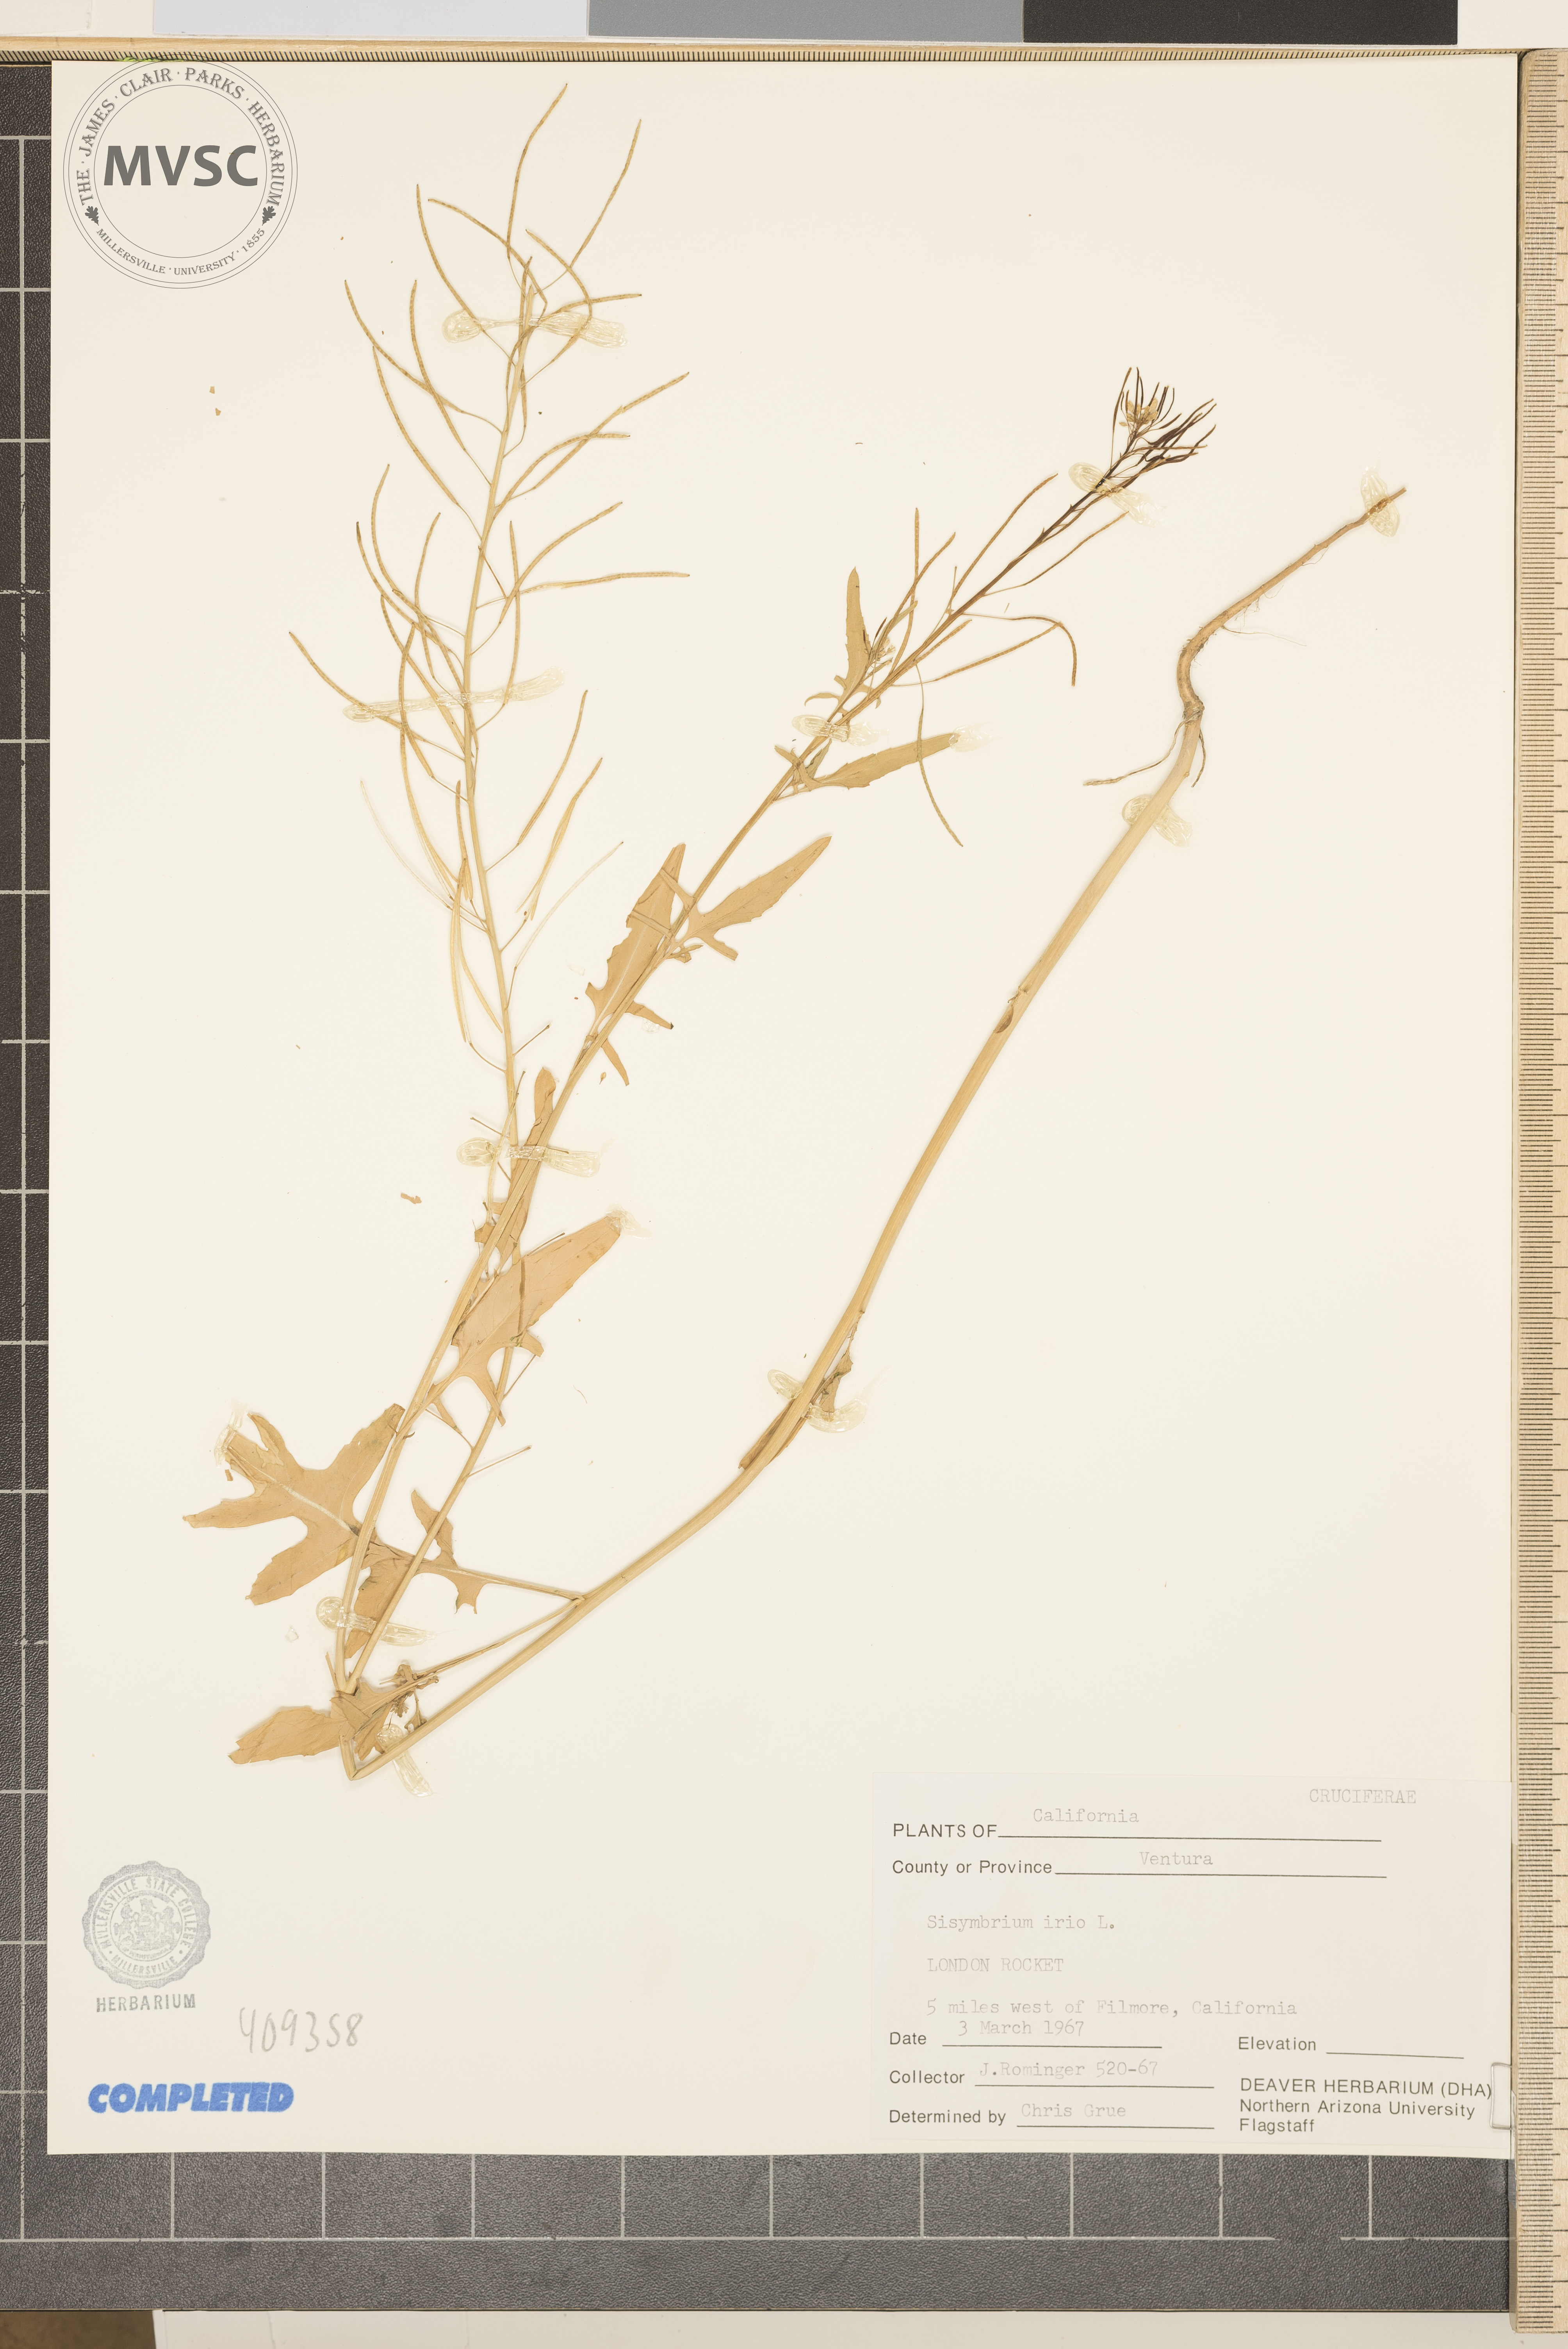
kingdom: Plantae
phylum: Tracheophyta
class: Magnoliopsida
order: Brassicales
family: Brassicaceae
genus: Sisymbrium
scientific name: Sisymbrium irio
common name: London Rocket
